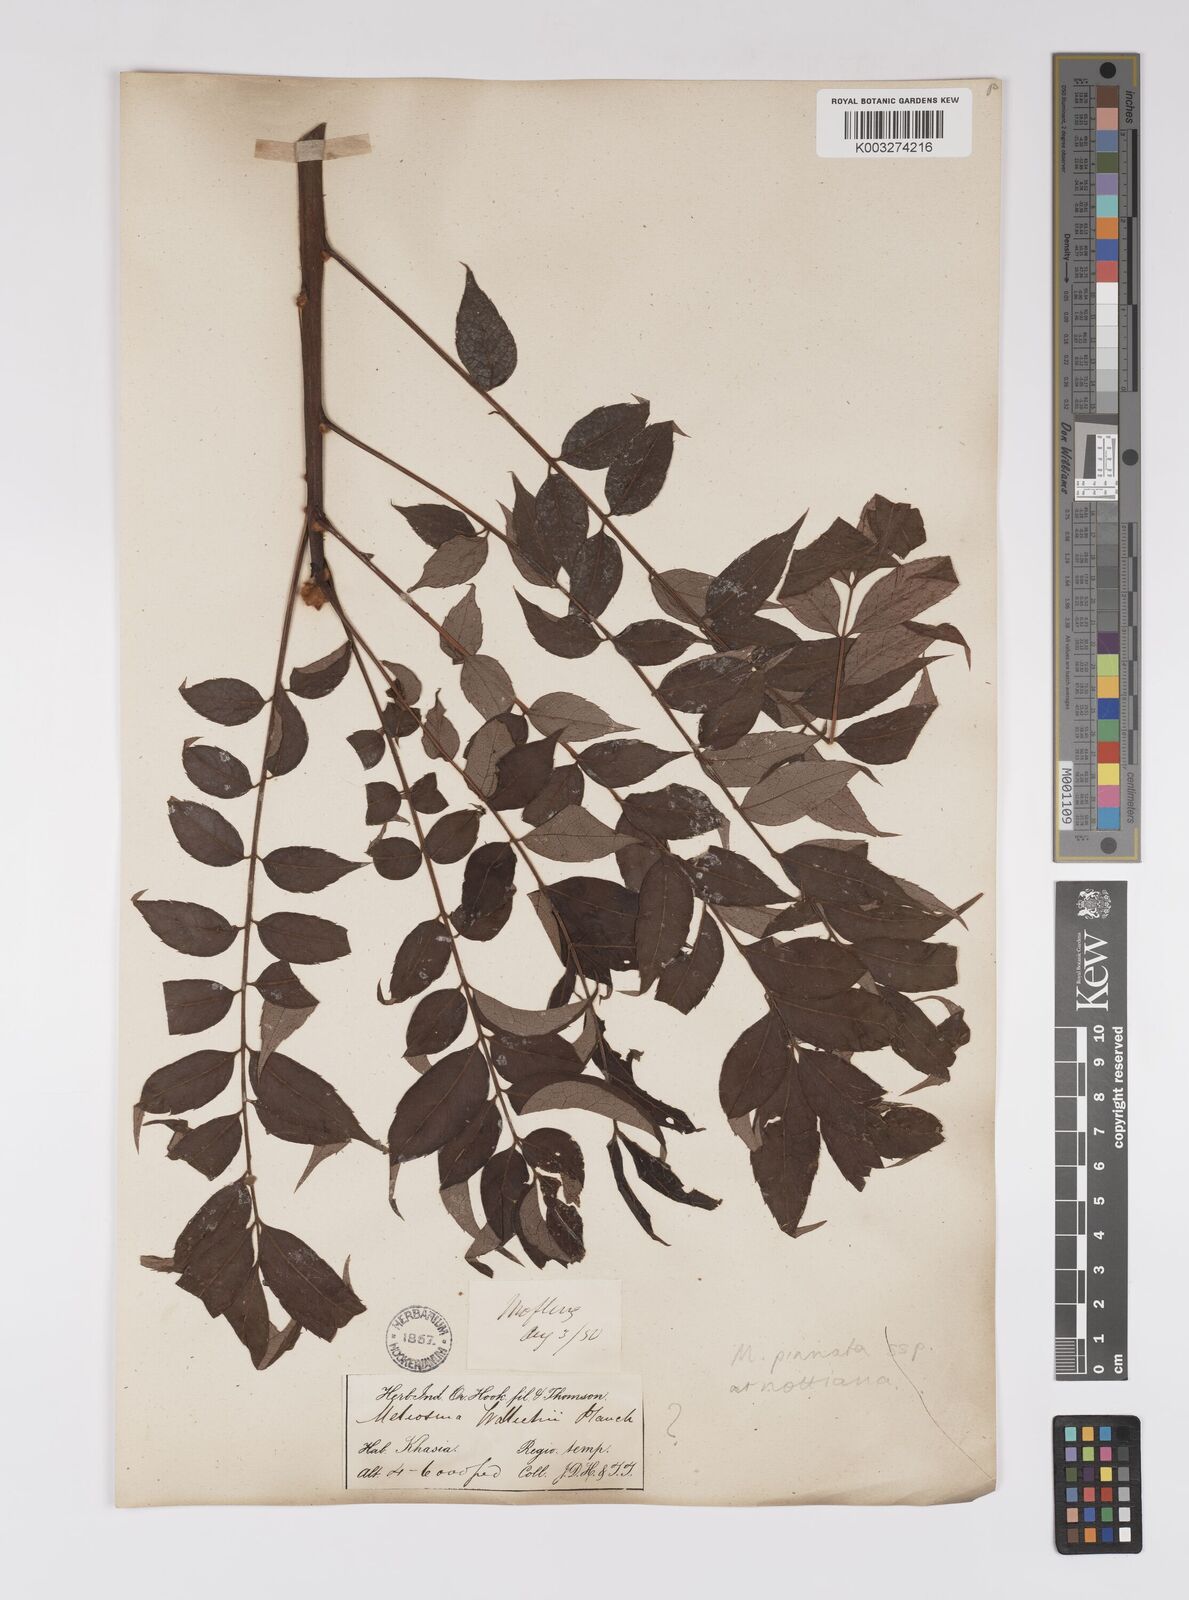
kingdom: Plantae
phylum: Tracheophyta
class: Magnoliopsida
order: Proteales
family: Sabiaceae
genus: Meliosma
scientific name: Meliosma rhoifolia
